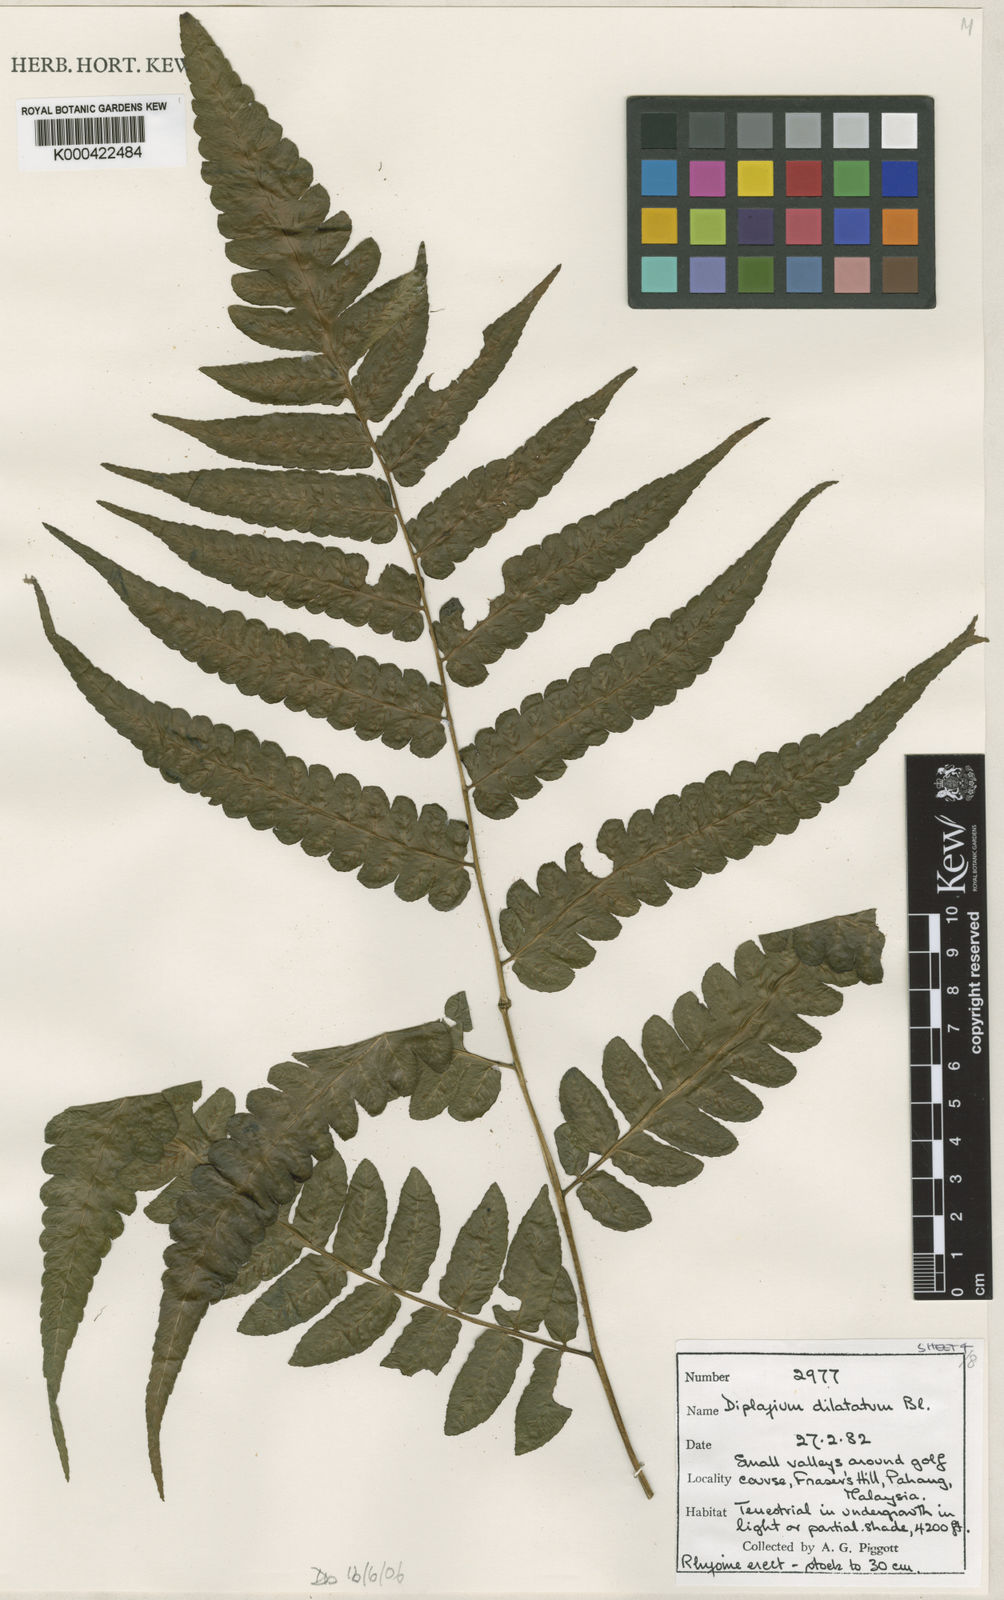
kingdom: Plantae
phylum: Tracheophyta
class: Polypodiopsida
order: Polypodiales
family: Athyriaceae
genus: Diplazium
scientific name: Diplazium dilatatum
